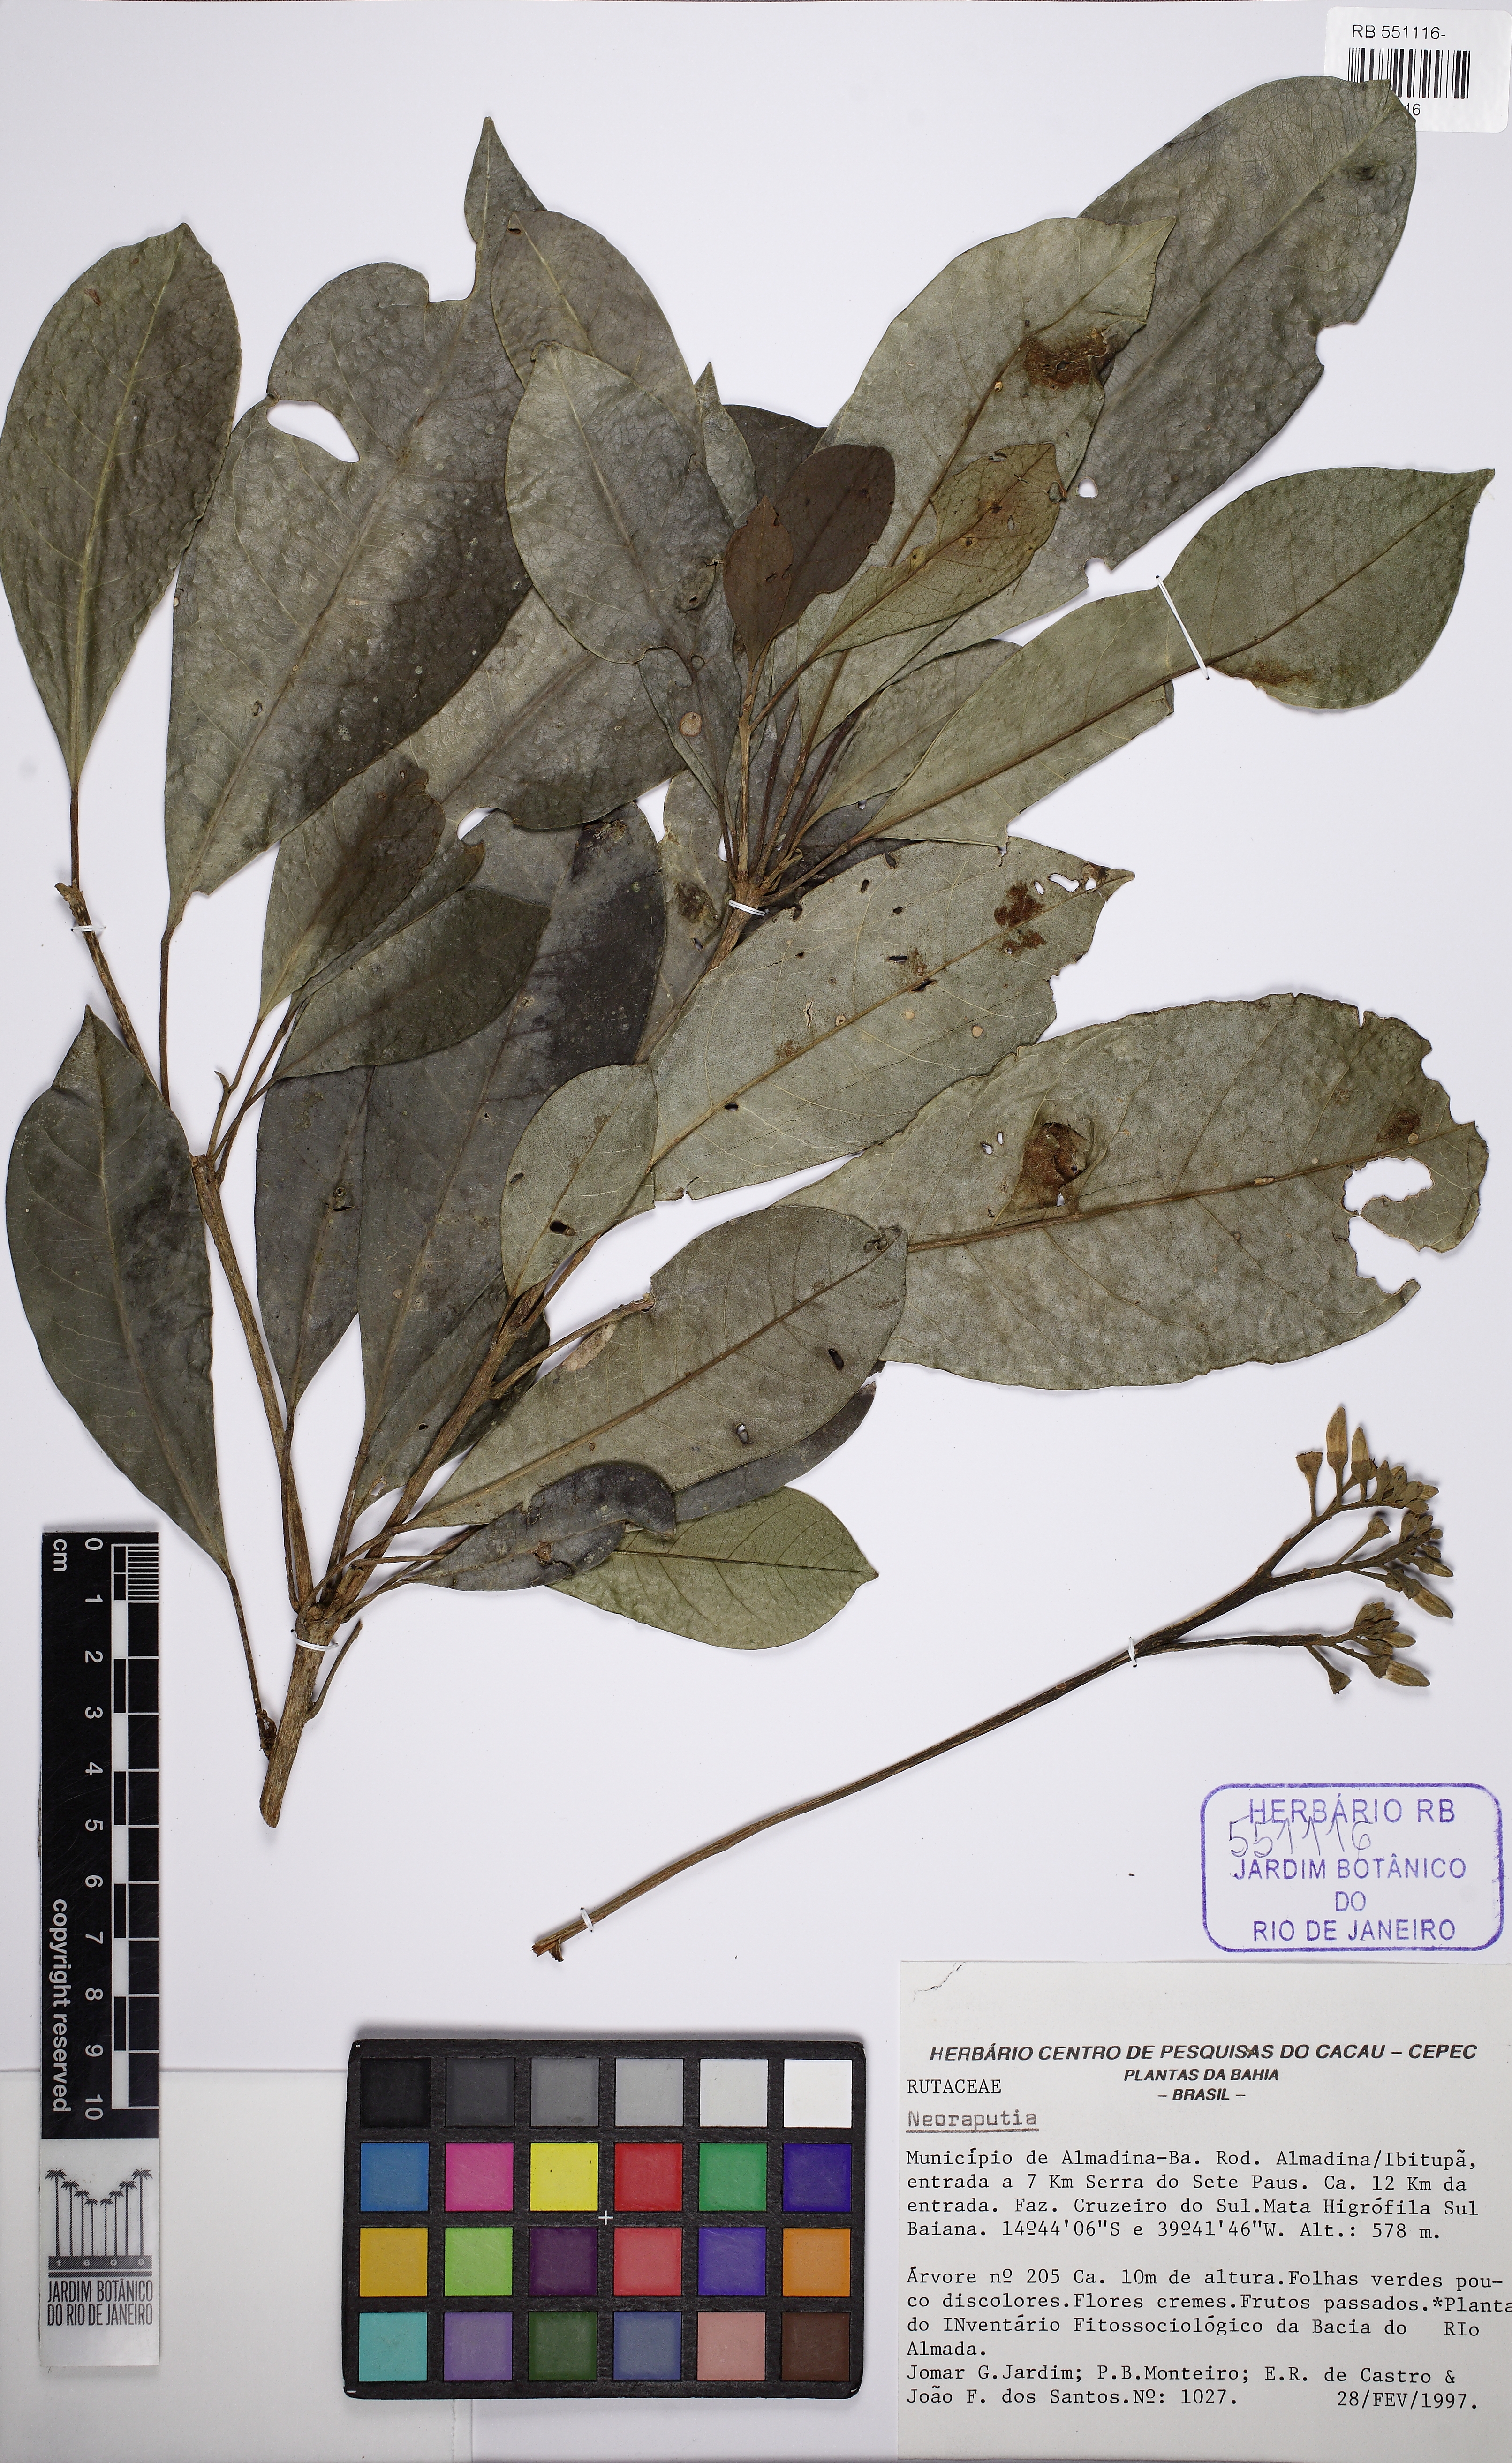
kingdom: Plantae
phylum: Tracheophyta
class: Magnoliopsida
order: Sapindales
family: Rutaceae
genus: Neoraputia
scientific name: Neoraputia alba
